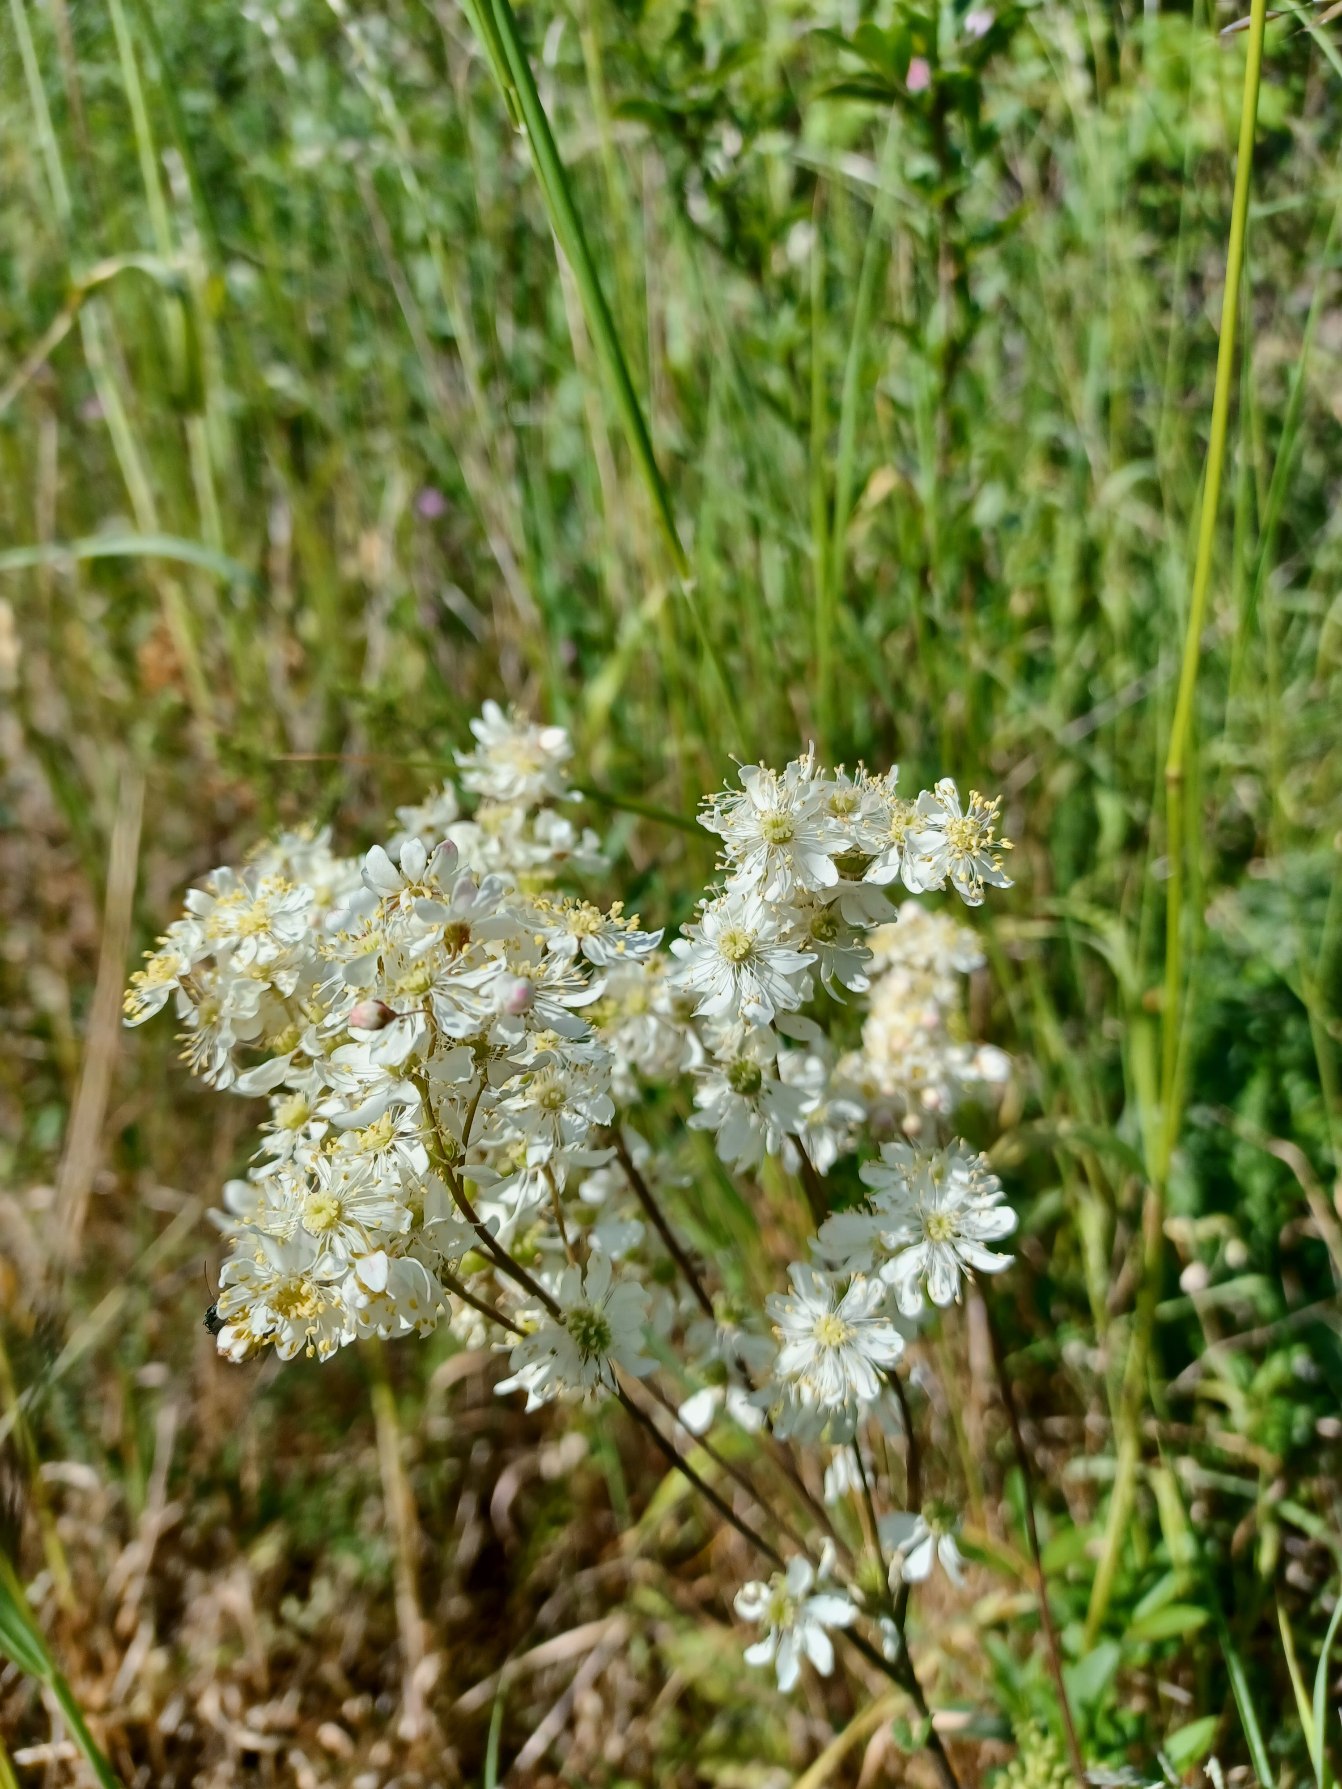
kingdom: Plantae
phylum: Tracheophyta
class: Magnoliopsida
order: Rosales
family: Rosaceae
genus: Filipendula
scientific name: Filipendula vulgaris
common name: Knoldet mjødurt
